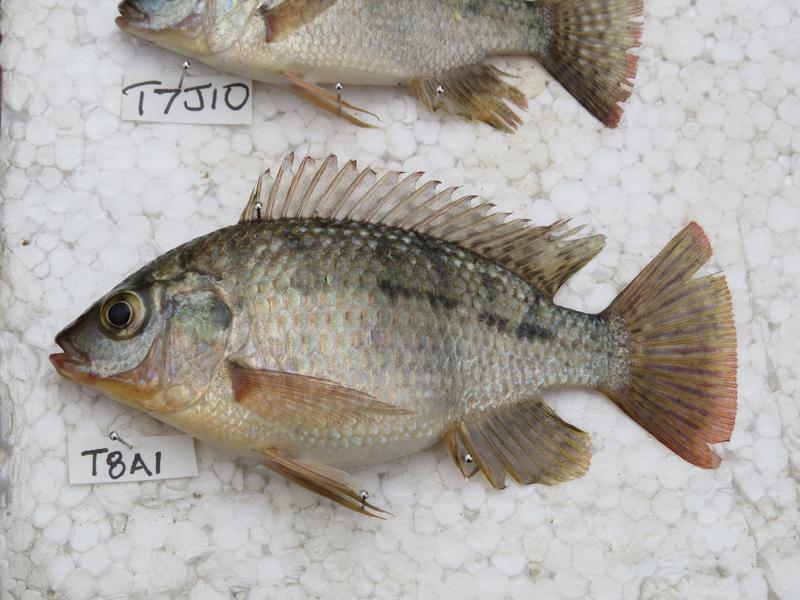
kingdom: Animalia
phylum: Chordata
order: Perciformes
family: Cichlidae
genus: Oreochromis
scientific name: Oreochromis shiranus
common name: Chilwa tilapia
